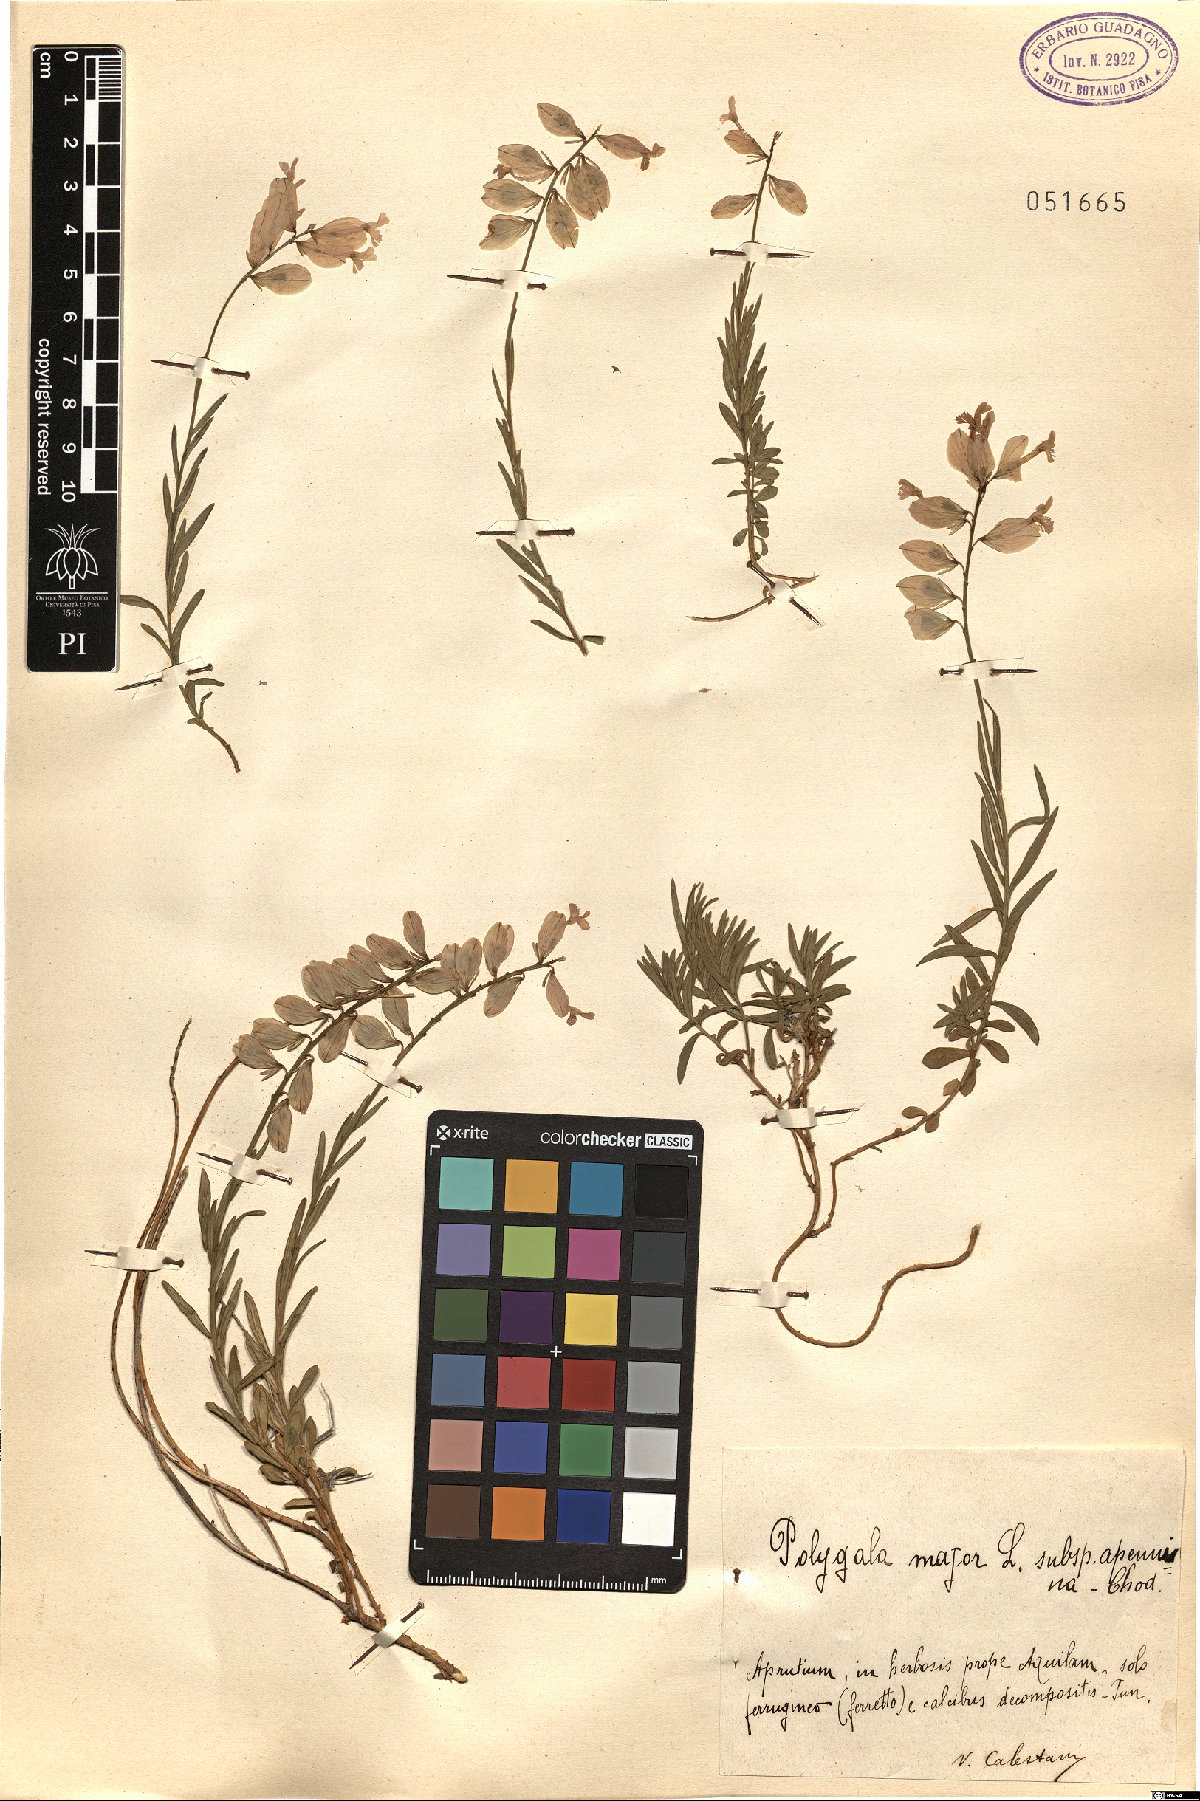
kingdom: Plantae
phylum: Tracheophyta
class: Magnoliopsida
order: Fabales
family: Polygalaceae
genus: Polygala
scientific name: Polygala major
